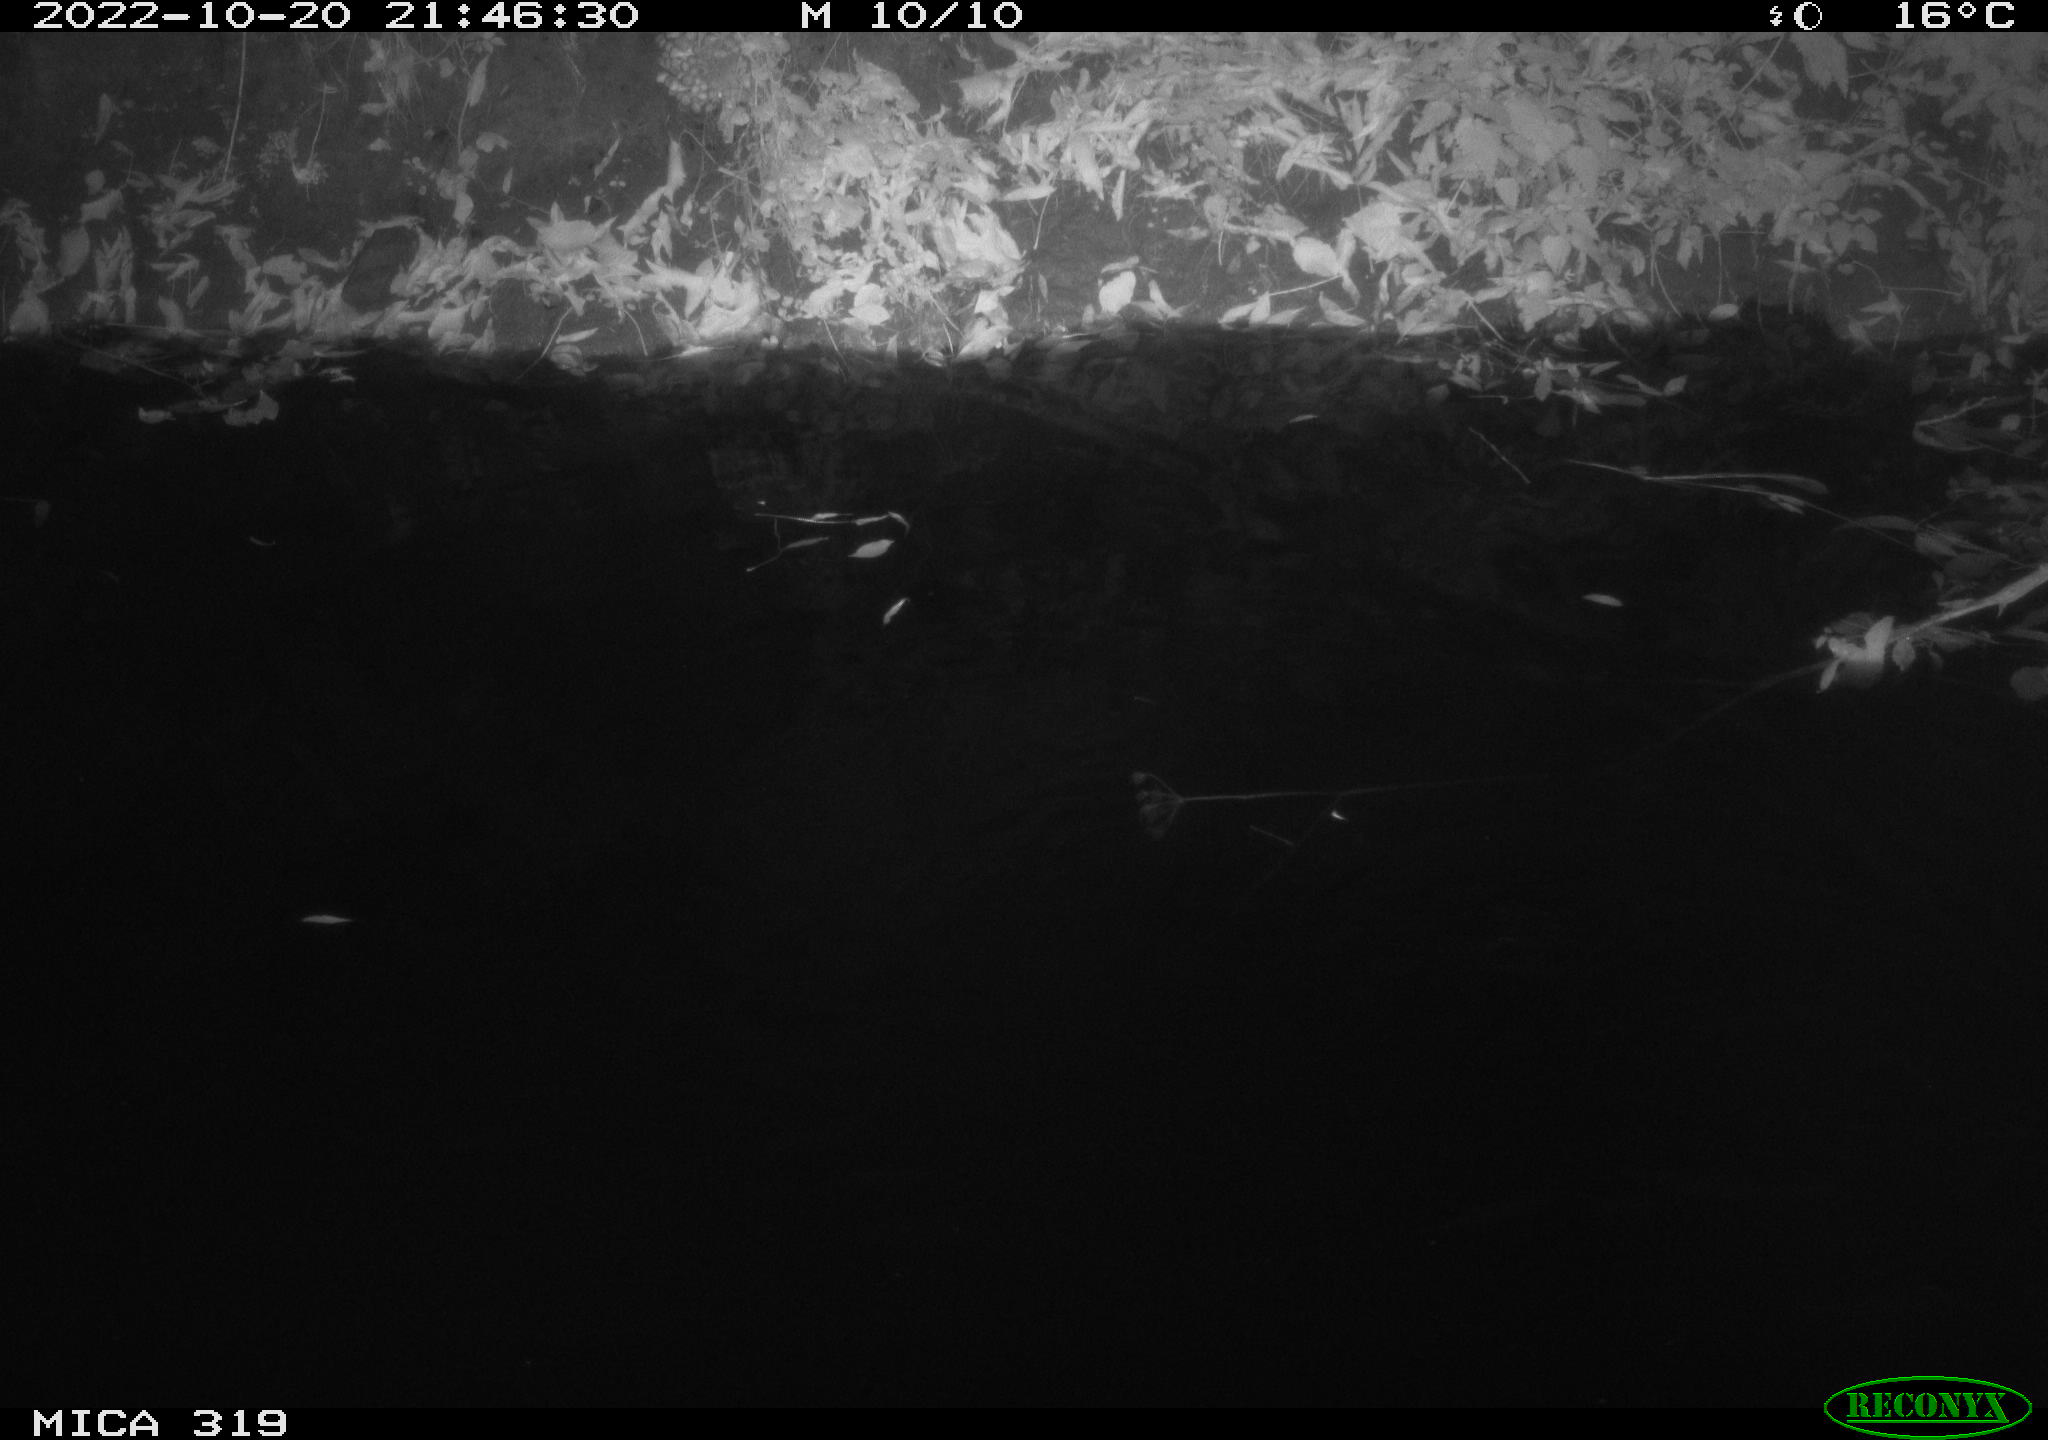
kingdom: Animalia
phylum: Chordata
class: Aves
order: Anseriformes
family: Anatidae
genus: Anas
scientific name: Anas
